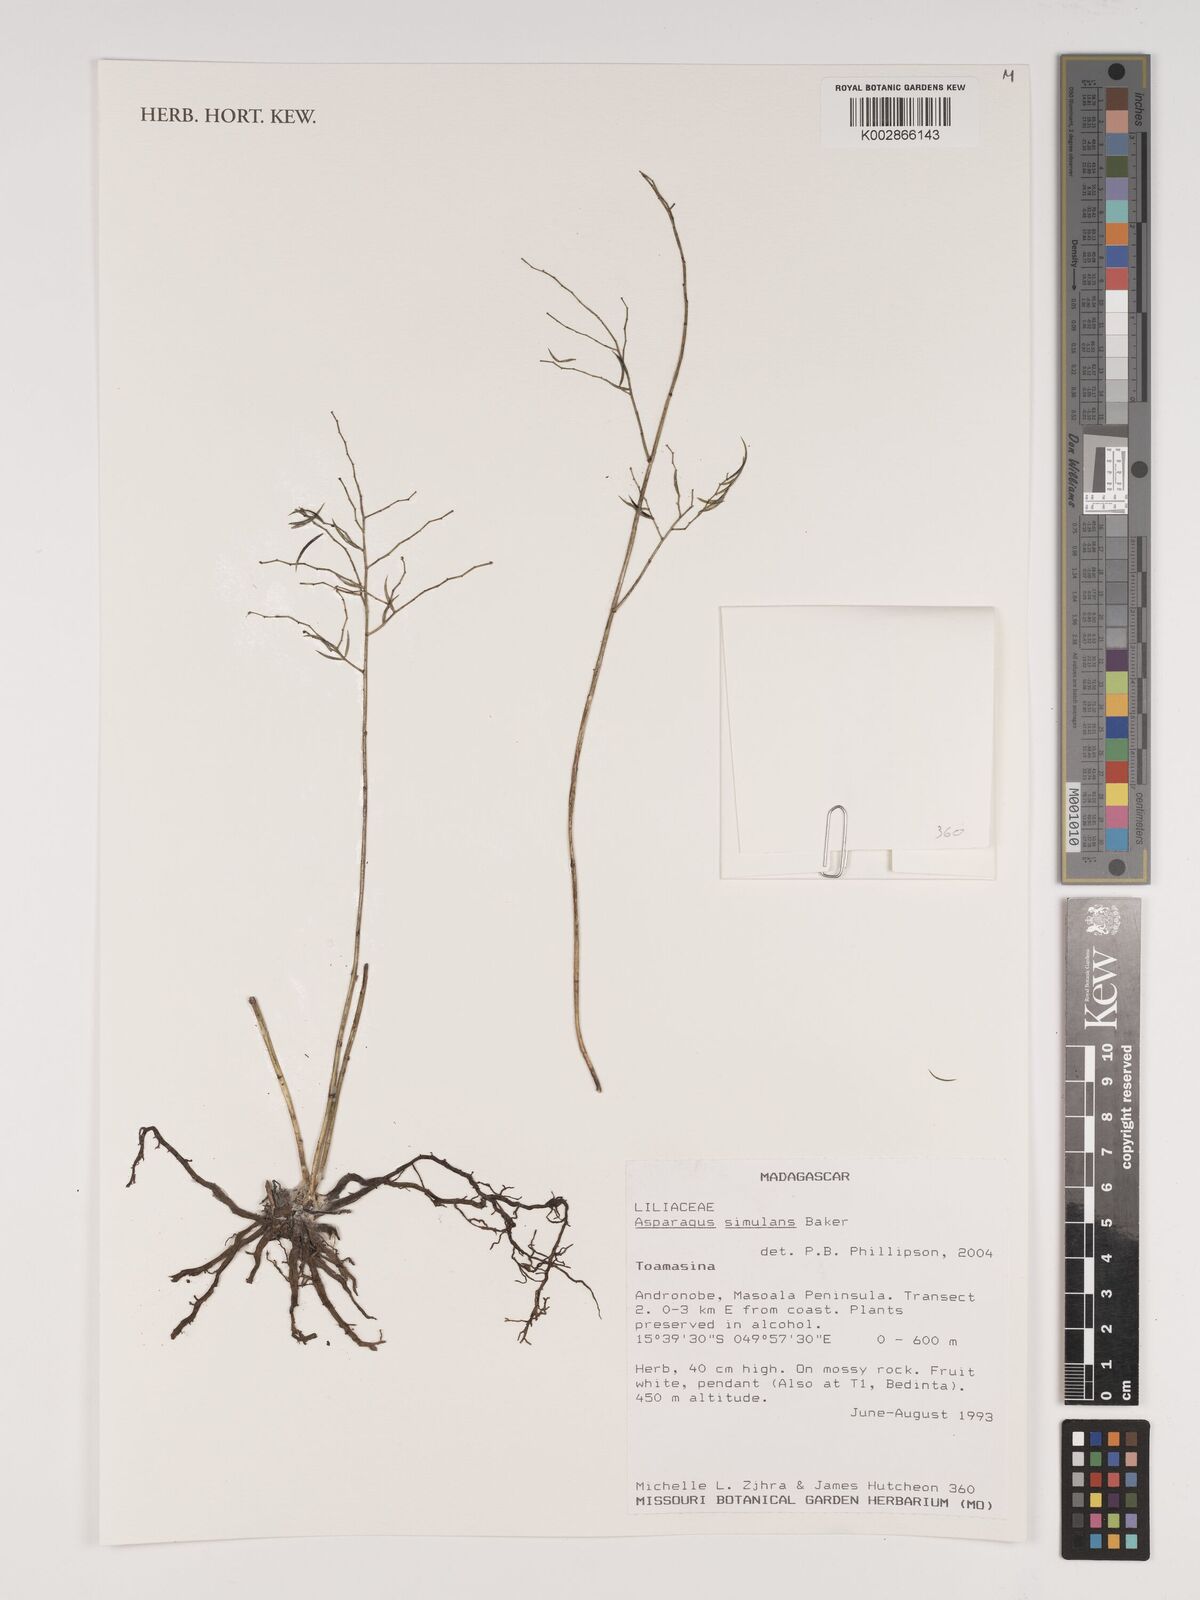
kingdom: Plantae
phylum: Tracheophyta
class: Liliopsida
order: Asparagales
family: Asparagaceae
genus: Asparagus
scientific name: Asparagus simulans
